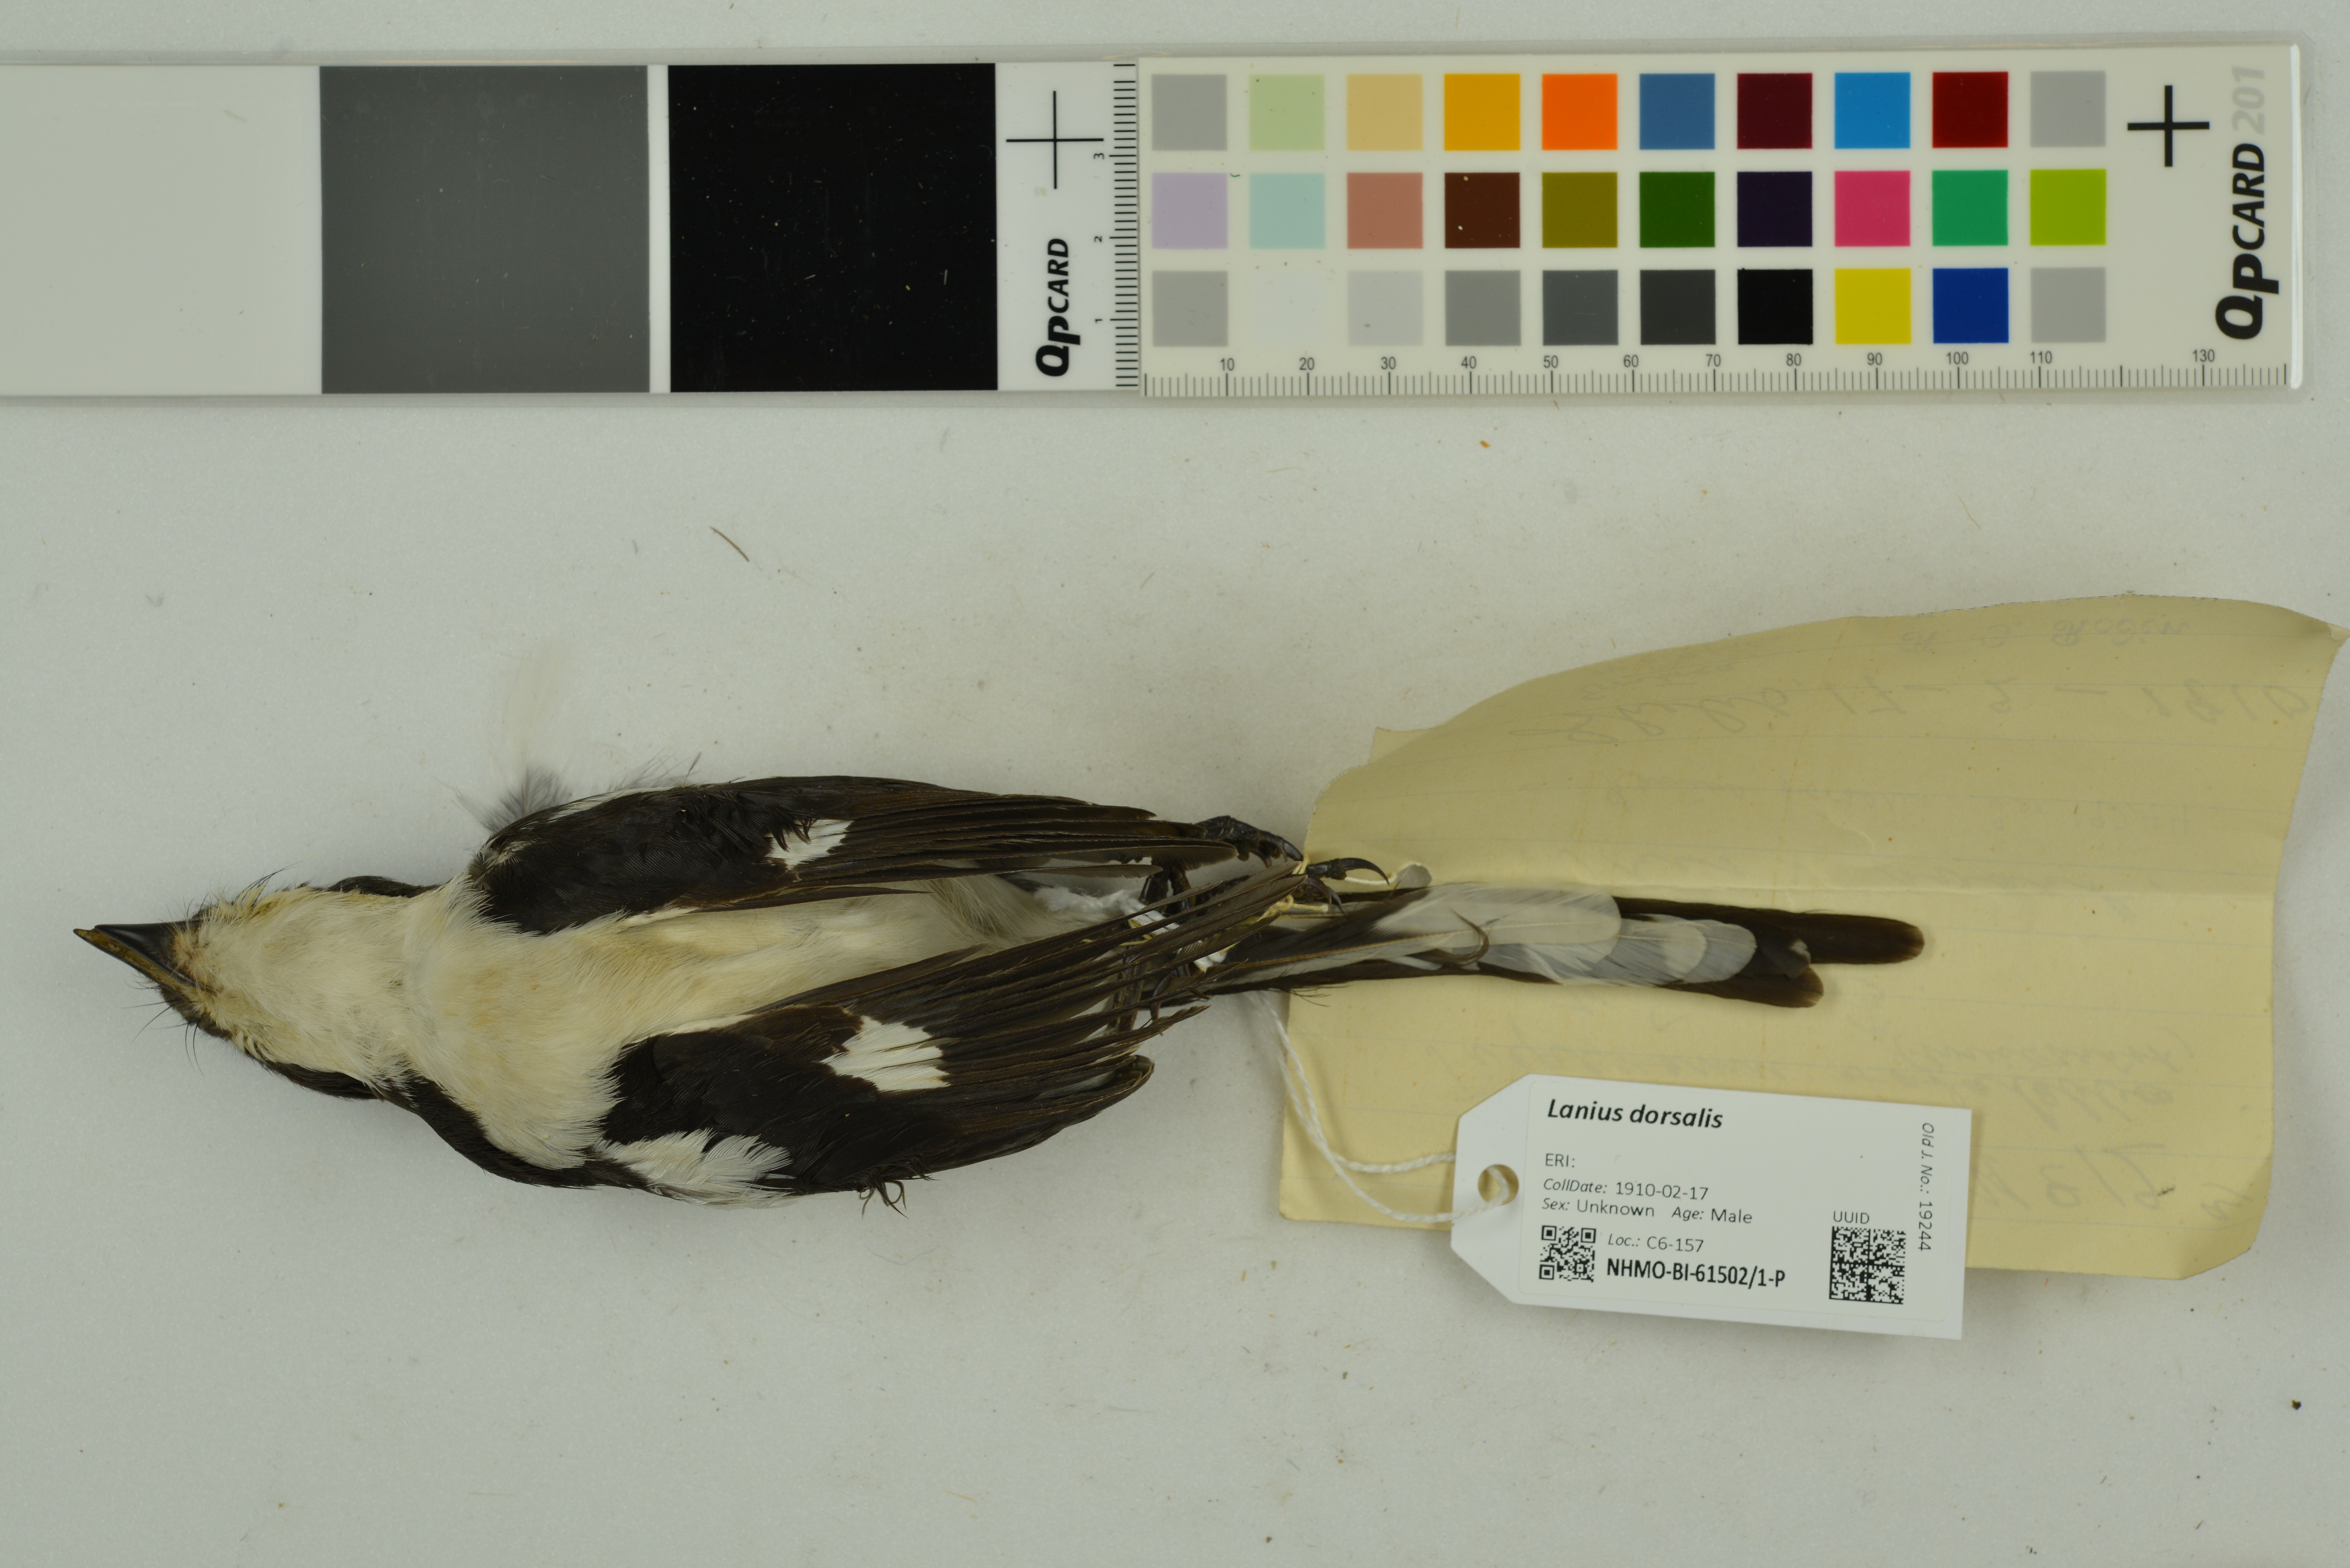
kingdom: Animalia
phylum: Chordata
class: Aves
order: Passeriformes
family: Laniidae
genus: Lanius
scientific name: Lanius dorsalis
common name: Taita fiscal
